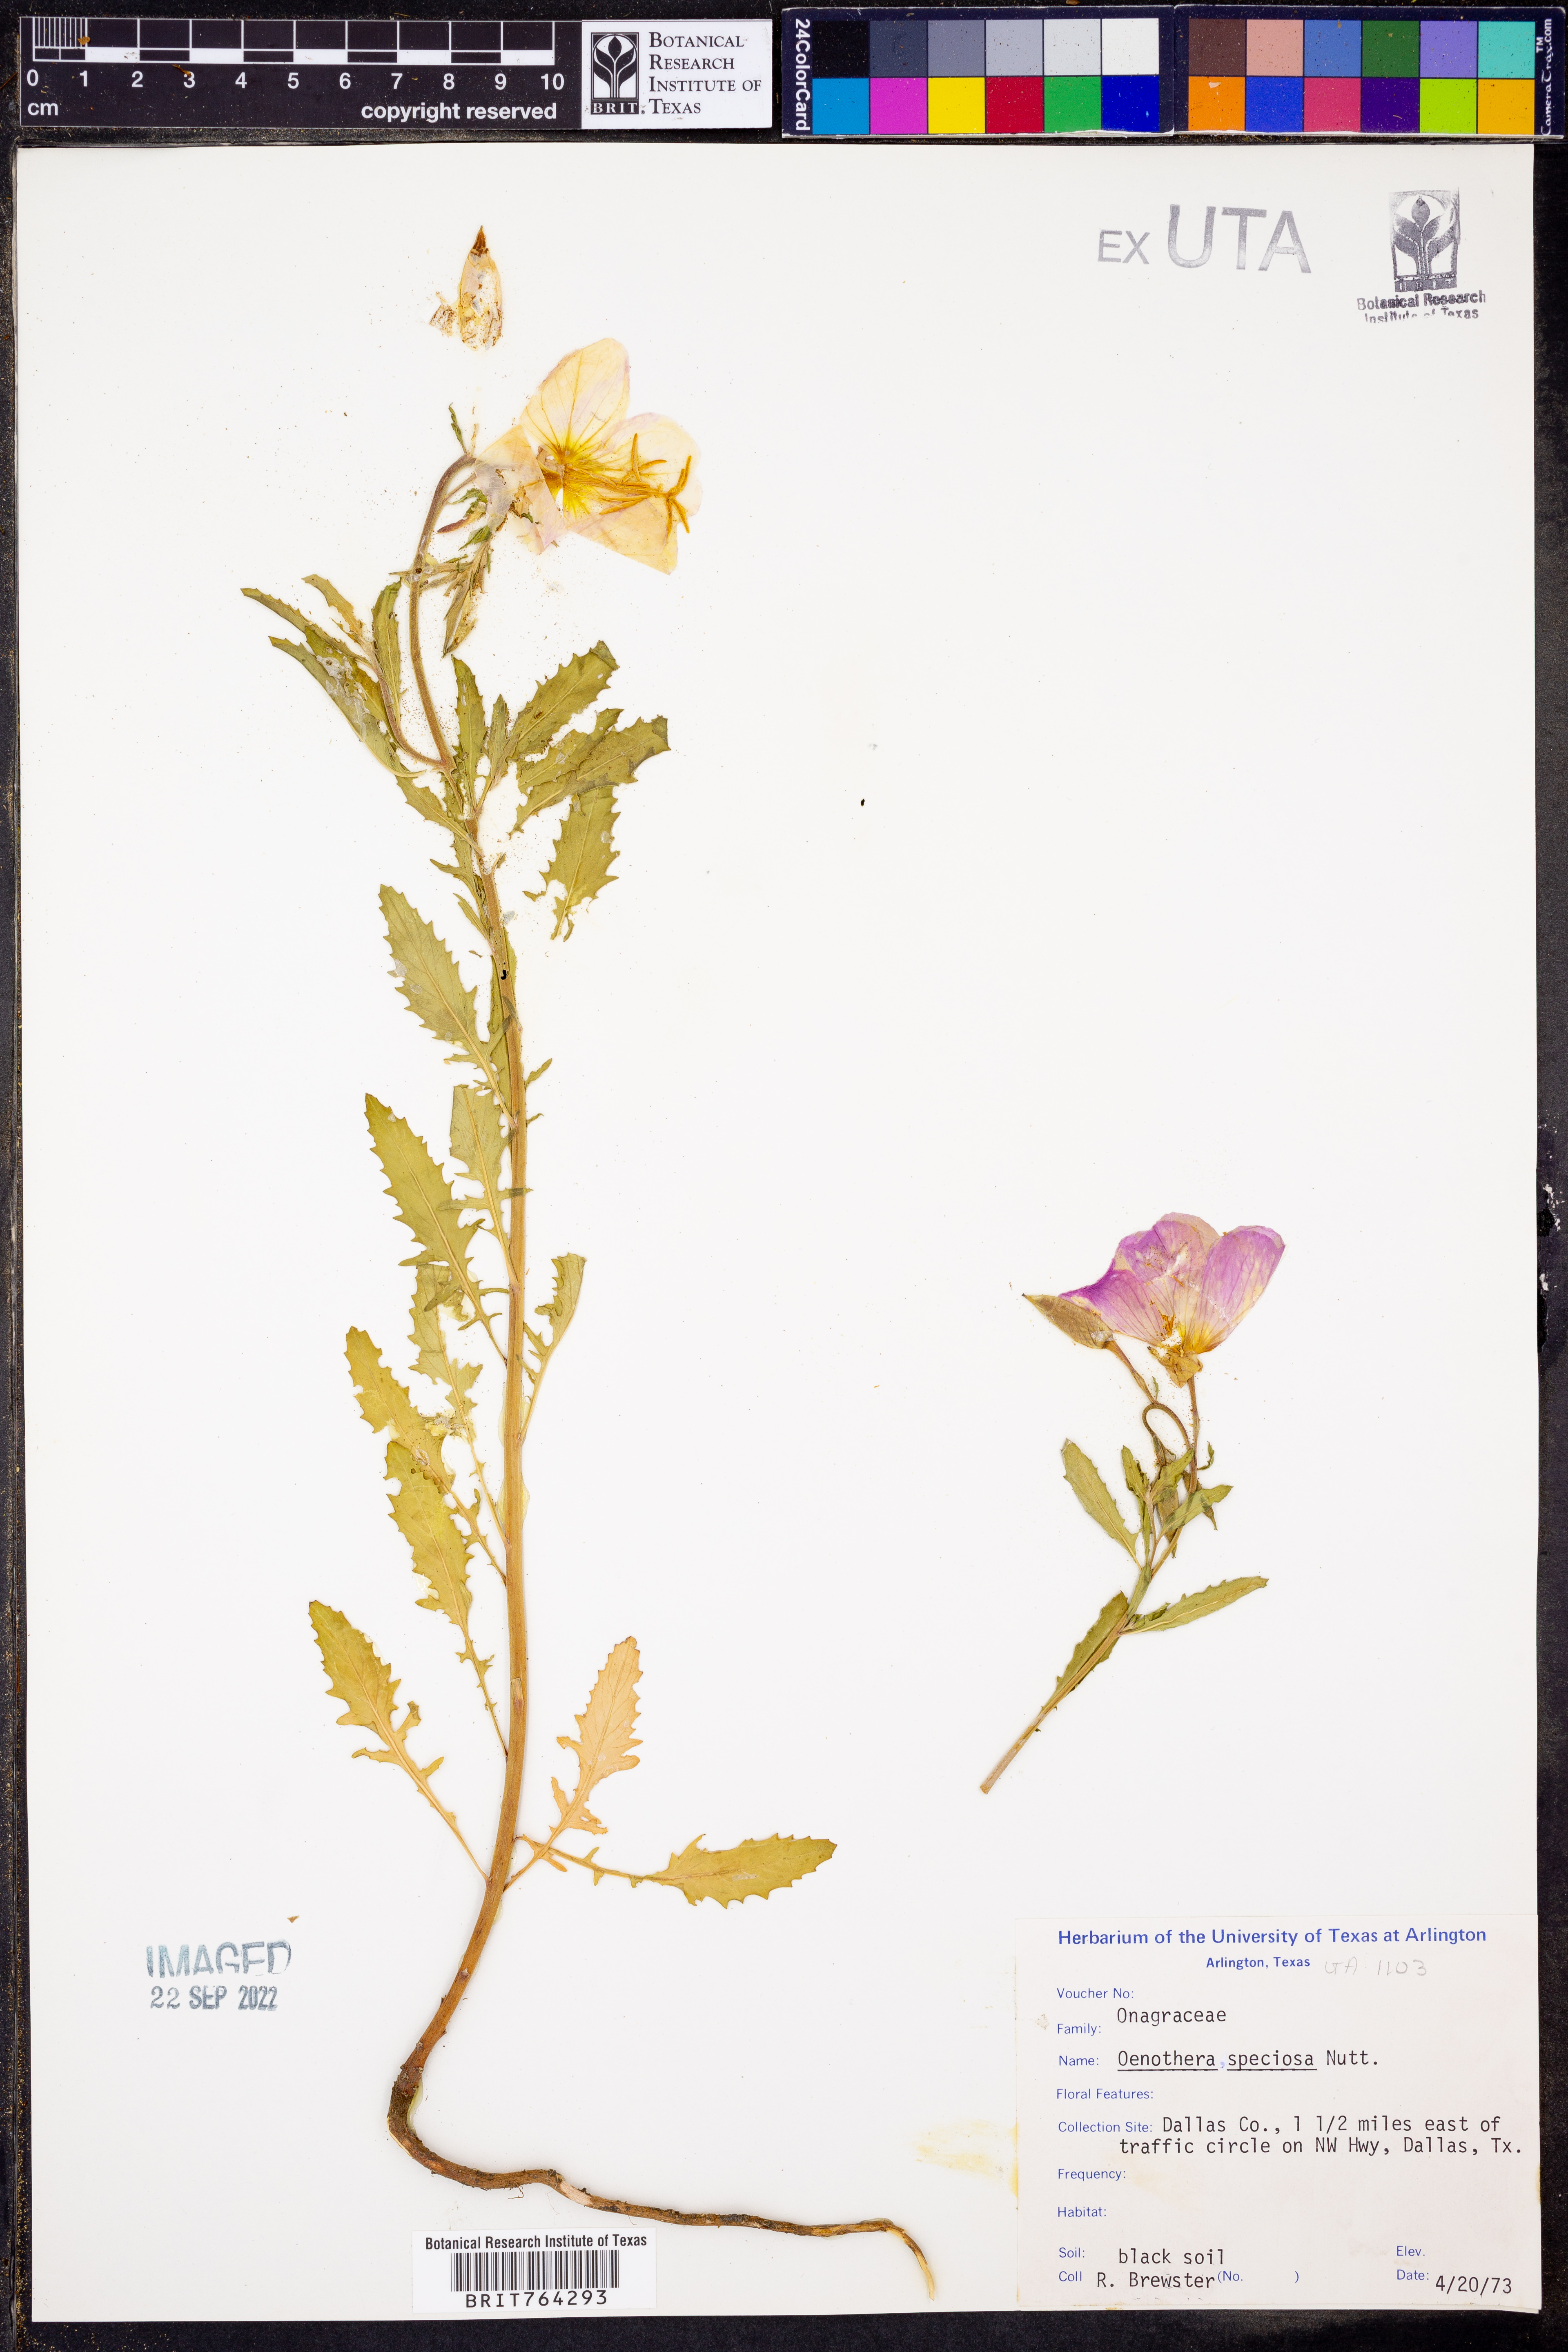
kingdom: Plantae
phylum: Tracheophyta
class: Magnoliopsida
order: Myrtales
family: Onagraceae
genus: Oenothera
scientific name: Oenothera speciosa
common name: White evening-primrose
